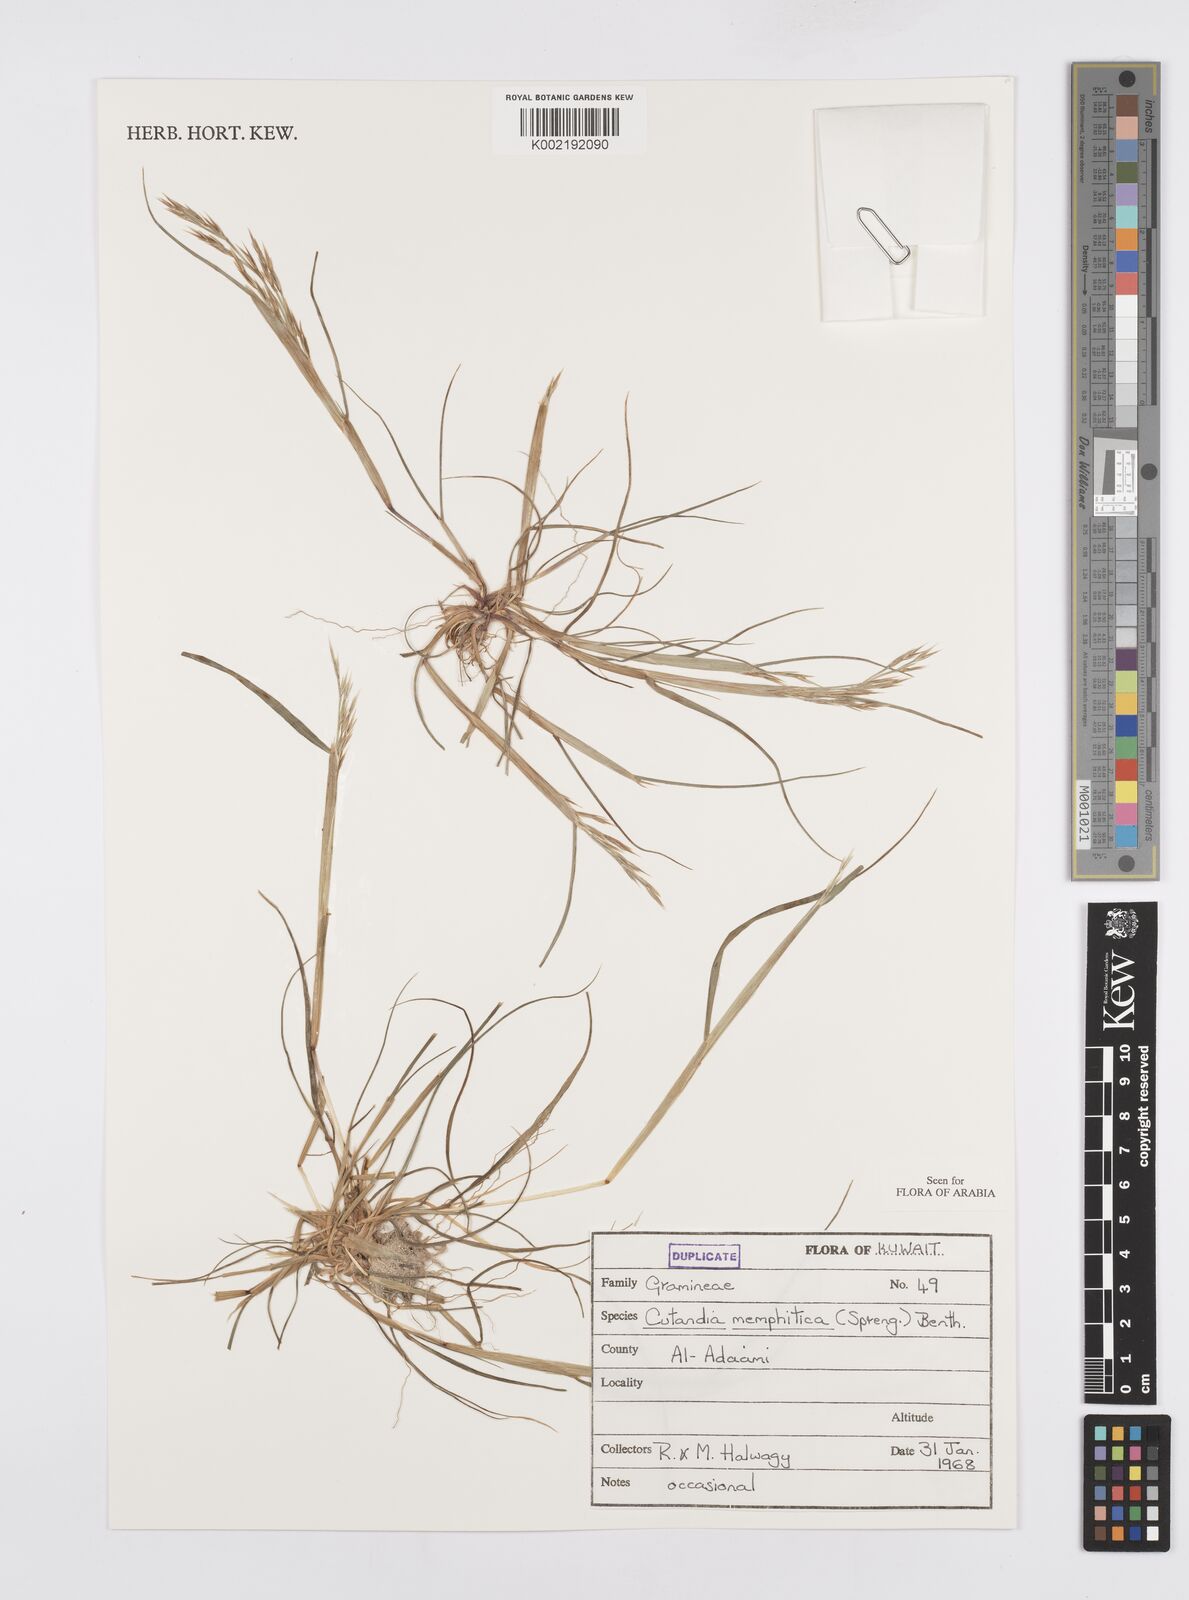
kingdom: Plantae
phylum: Tracheophyta
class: Liliopsida
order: Poales
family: Poaceae
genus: Cutandia
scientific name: Cutandia memphitica
